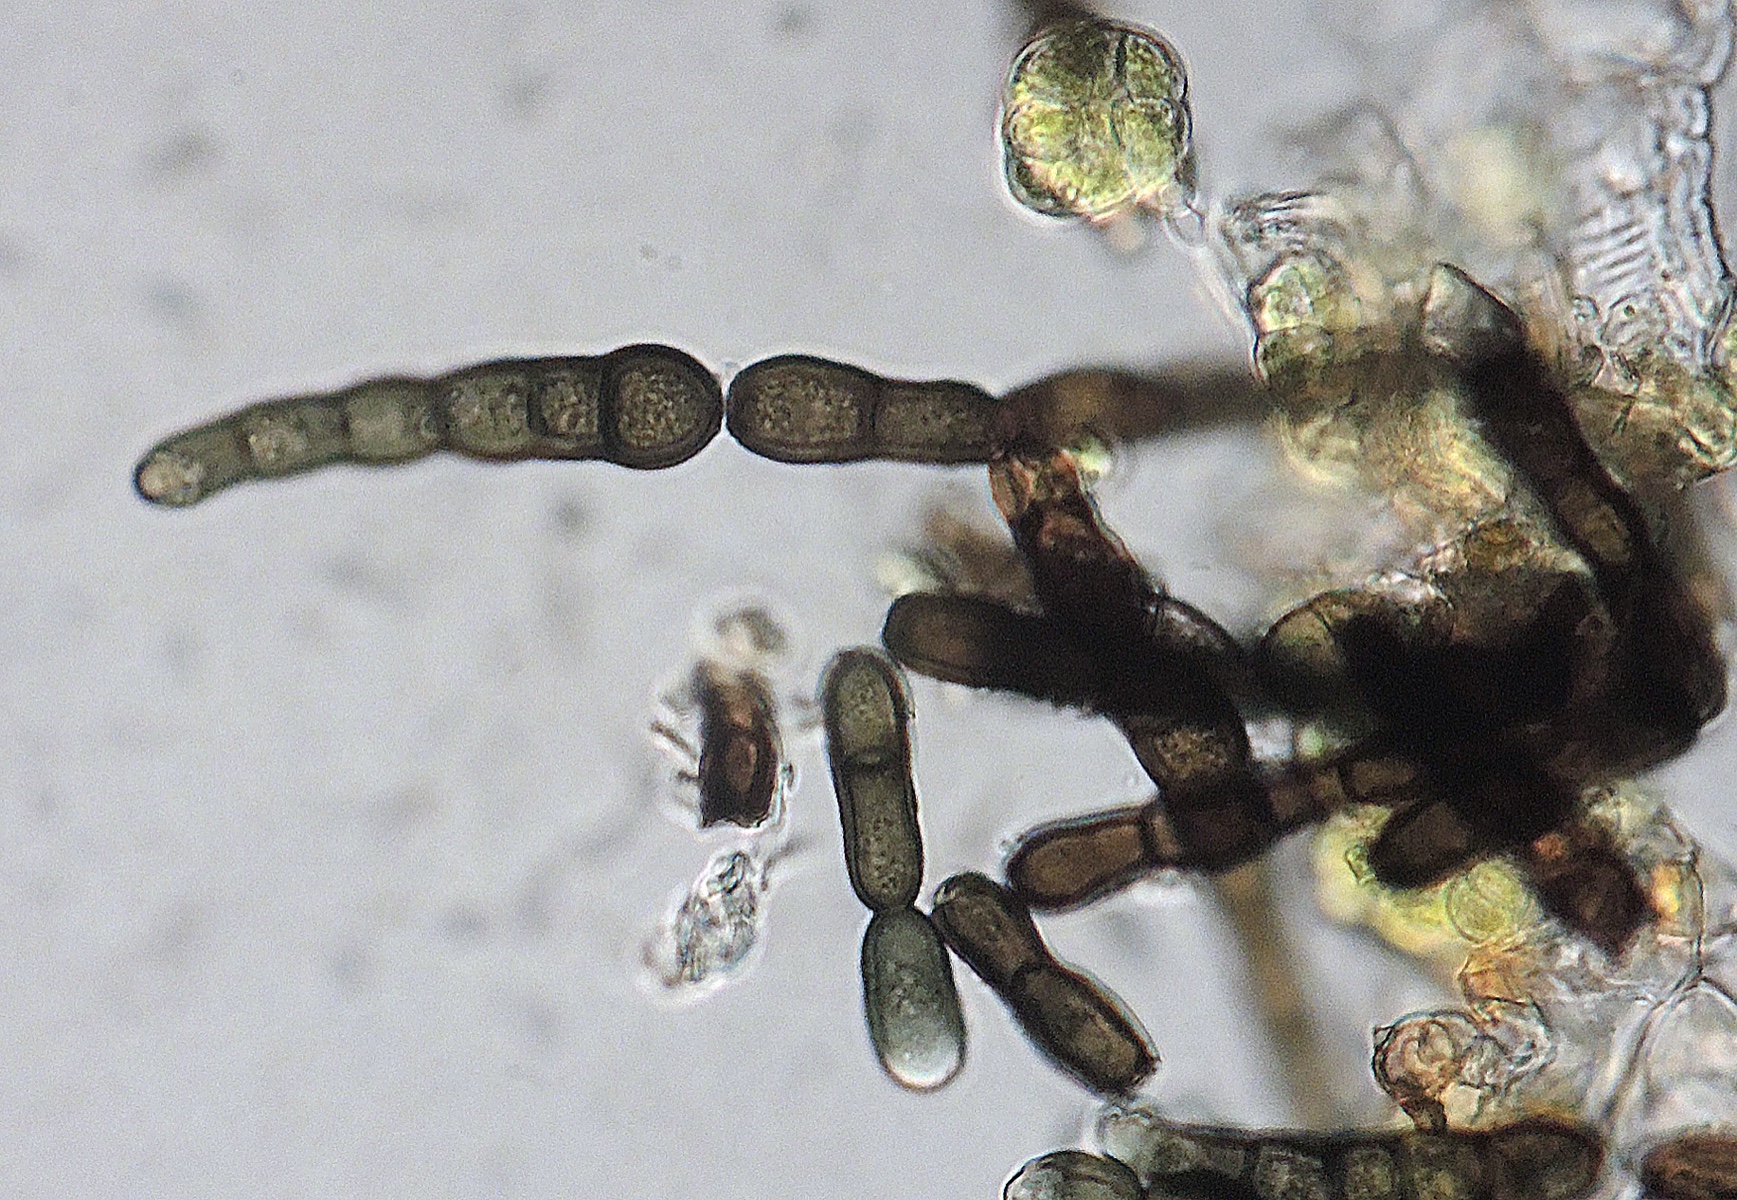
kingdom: Fungi
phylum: Ascomycota
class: Dothideomycetes
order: Pleosporales
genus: Sporidesmium
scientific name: Sporidesmium
